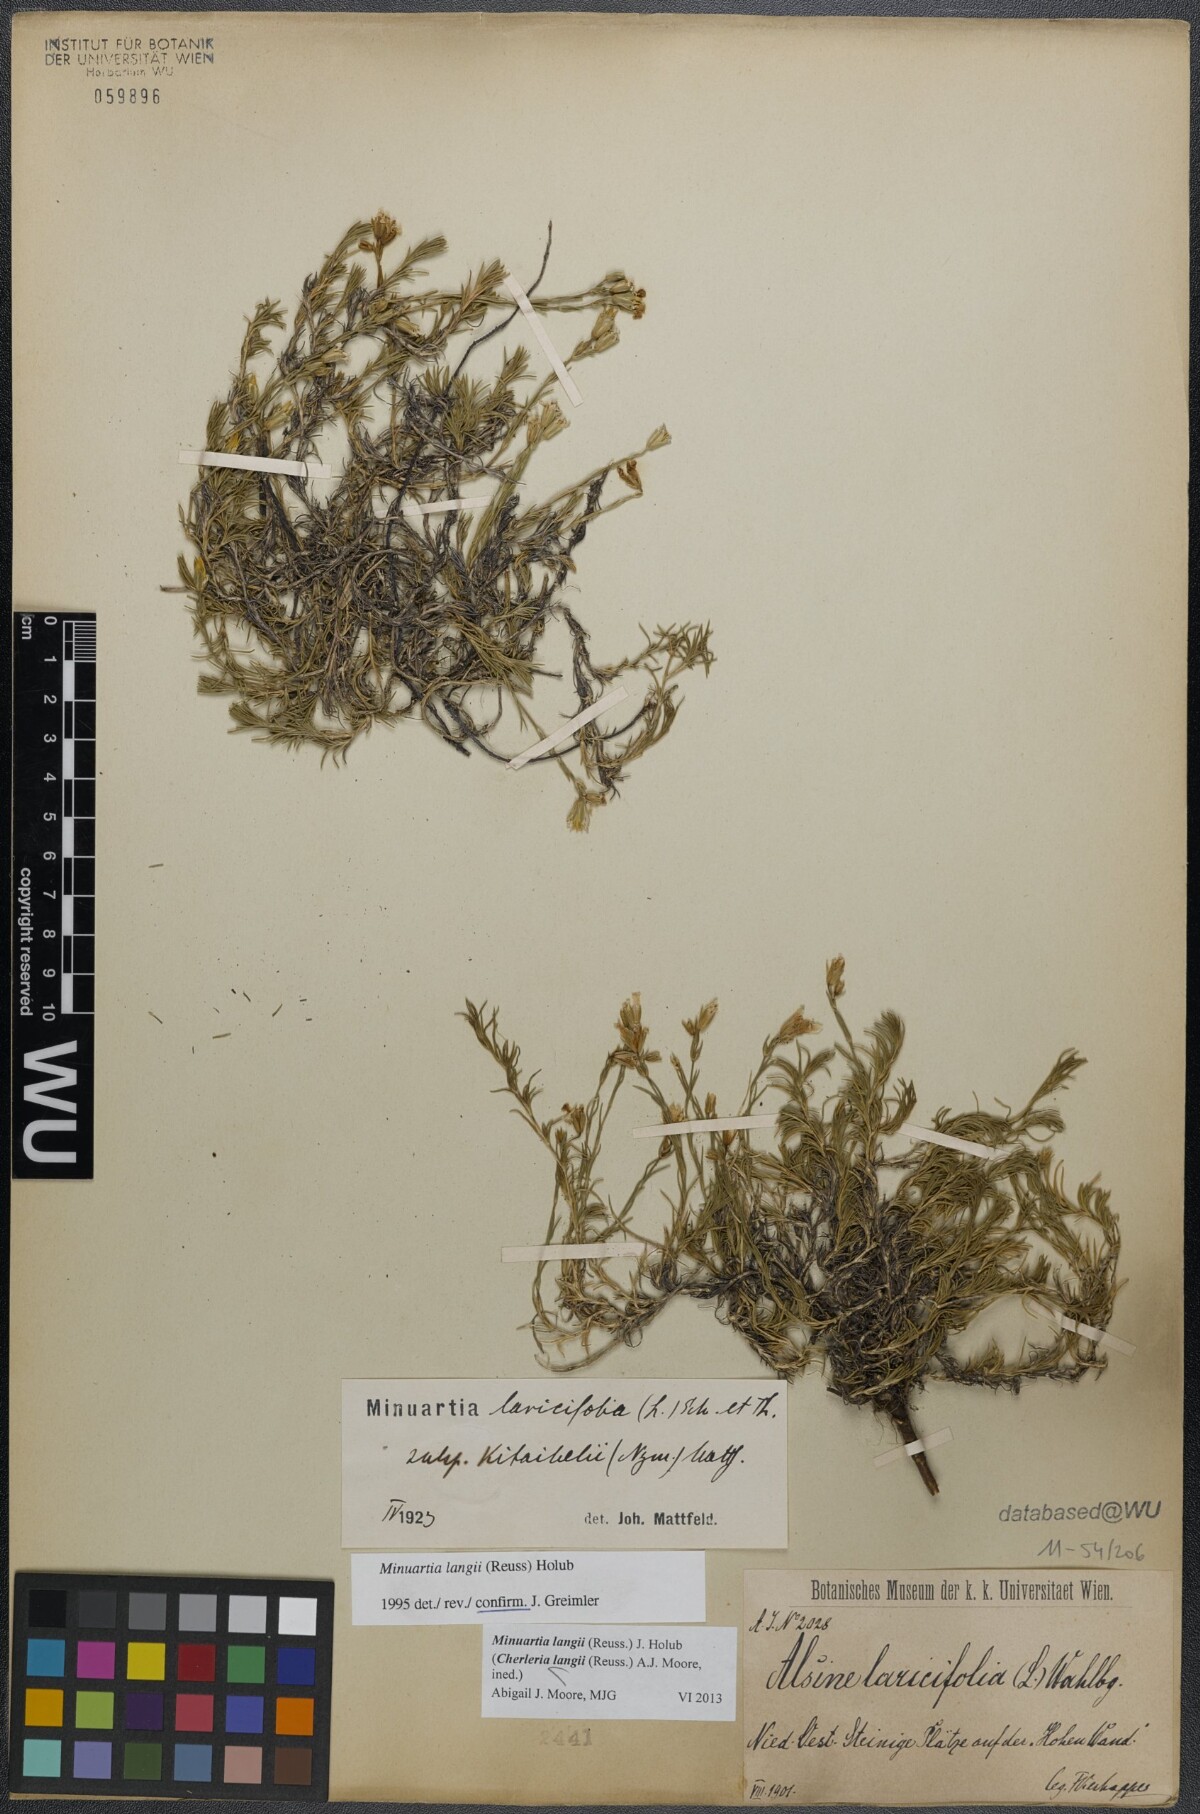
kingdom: Plantae
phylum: Tracheophyta
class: Magnoliopsida
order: Caryophyllales
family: Caryophyllaceae
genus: Cherleria
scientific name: Cherleria langii
